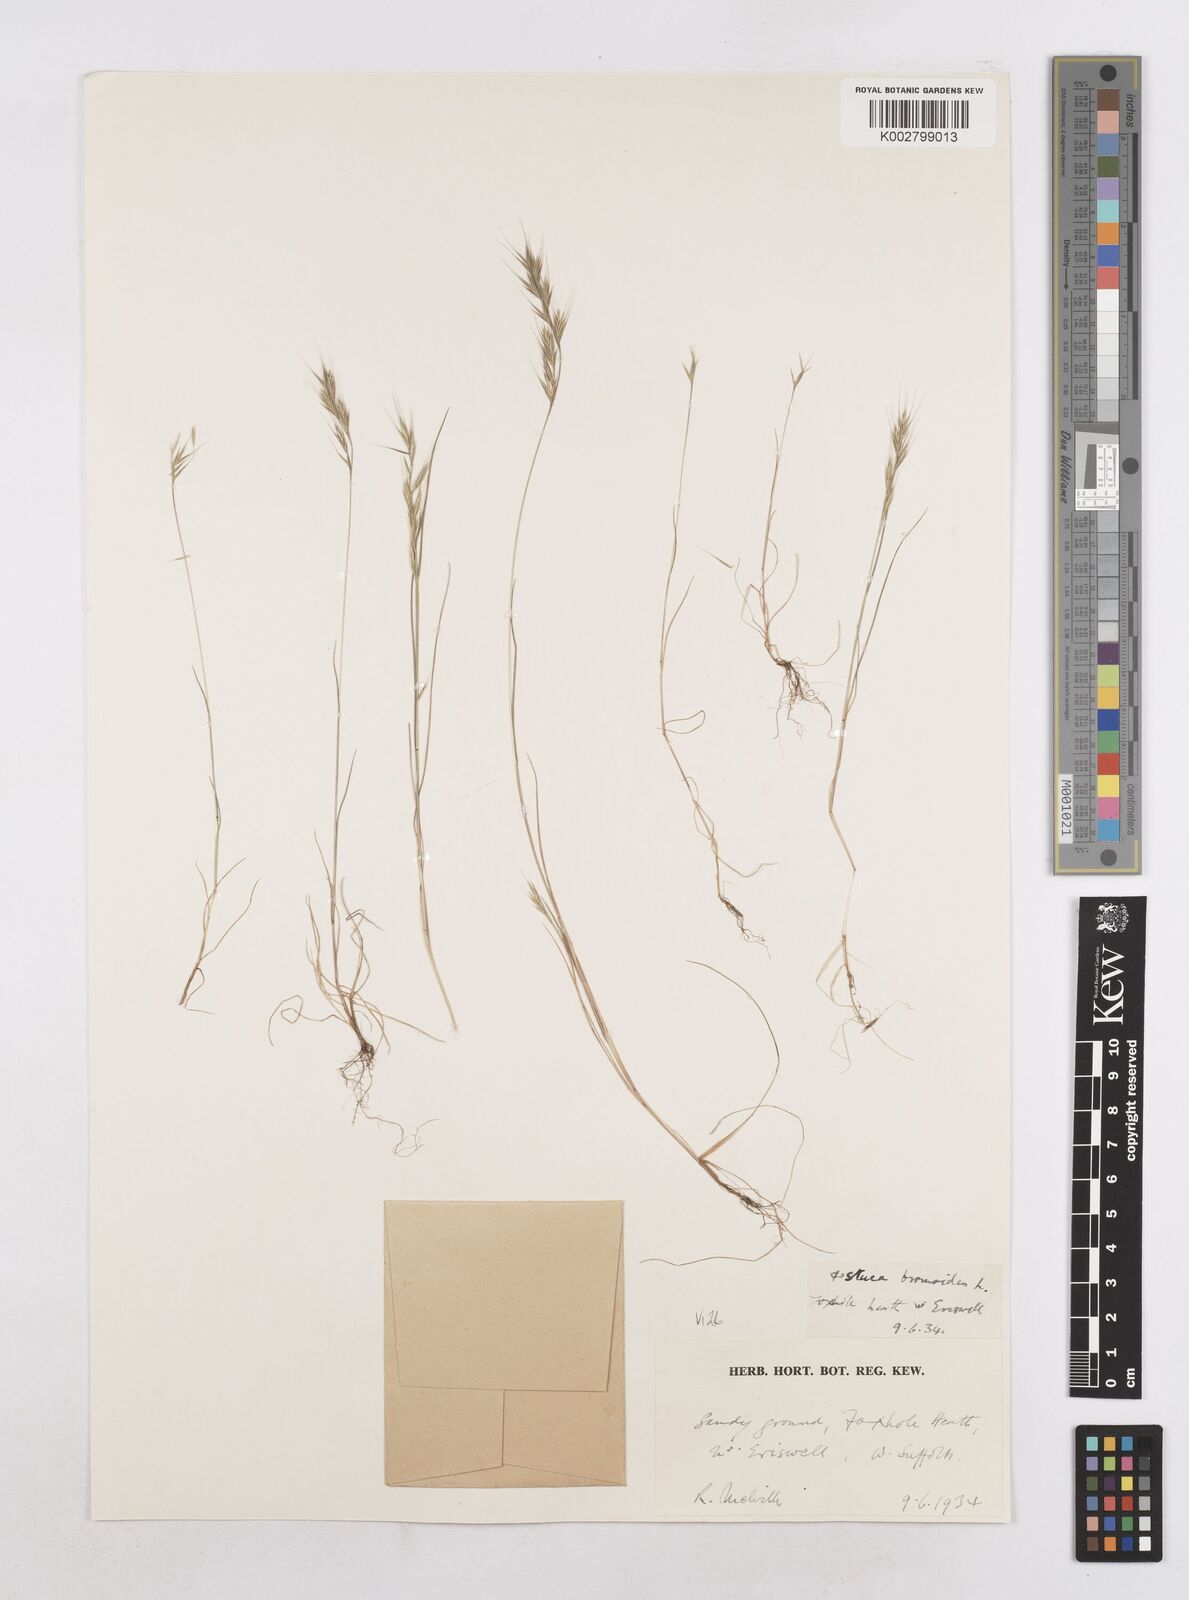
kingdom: Plantae
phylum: Tracheophyta
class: Liliopsida
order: Poales
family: Poaceae
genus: Festuca
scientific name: Festuca bromoides
